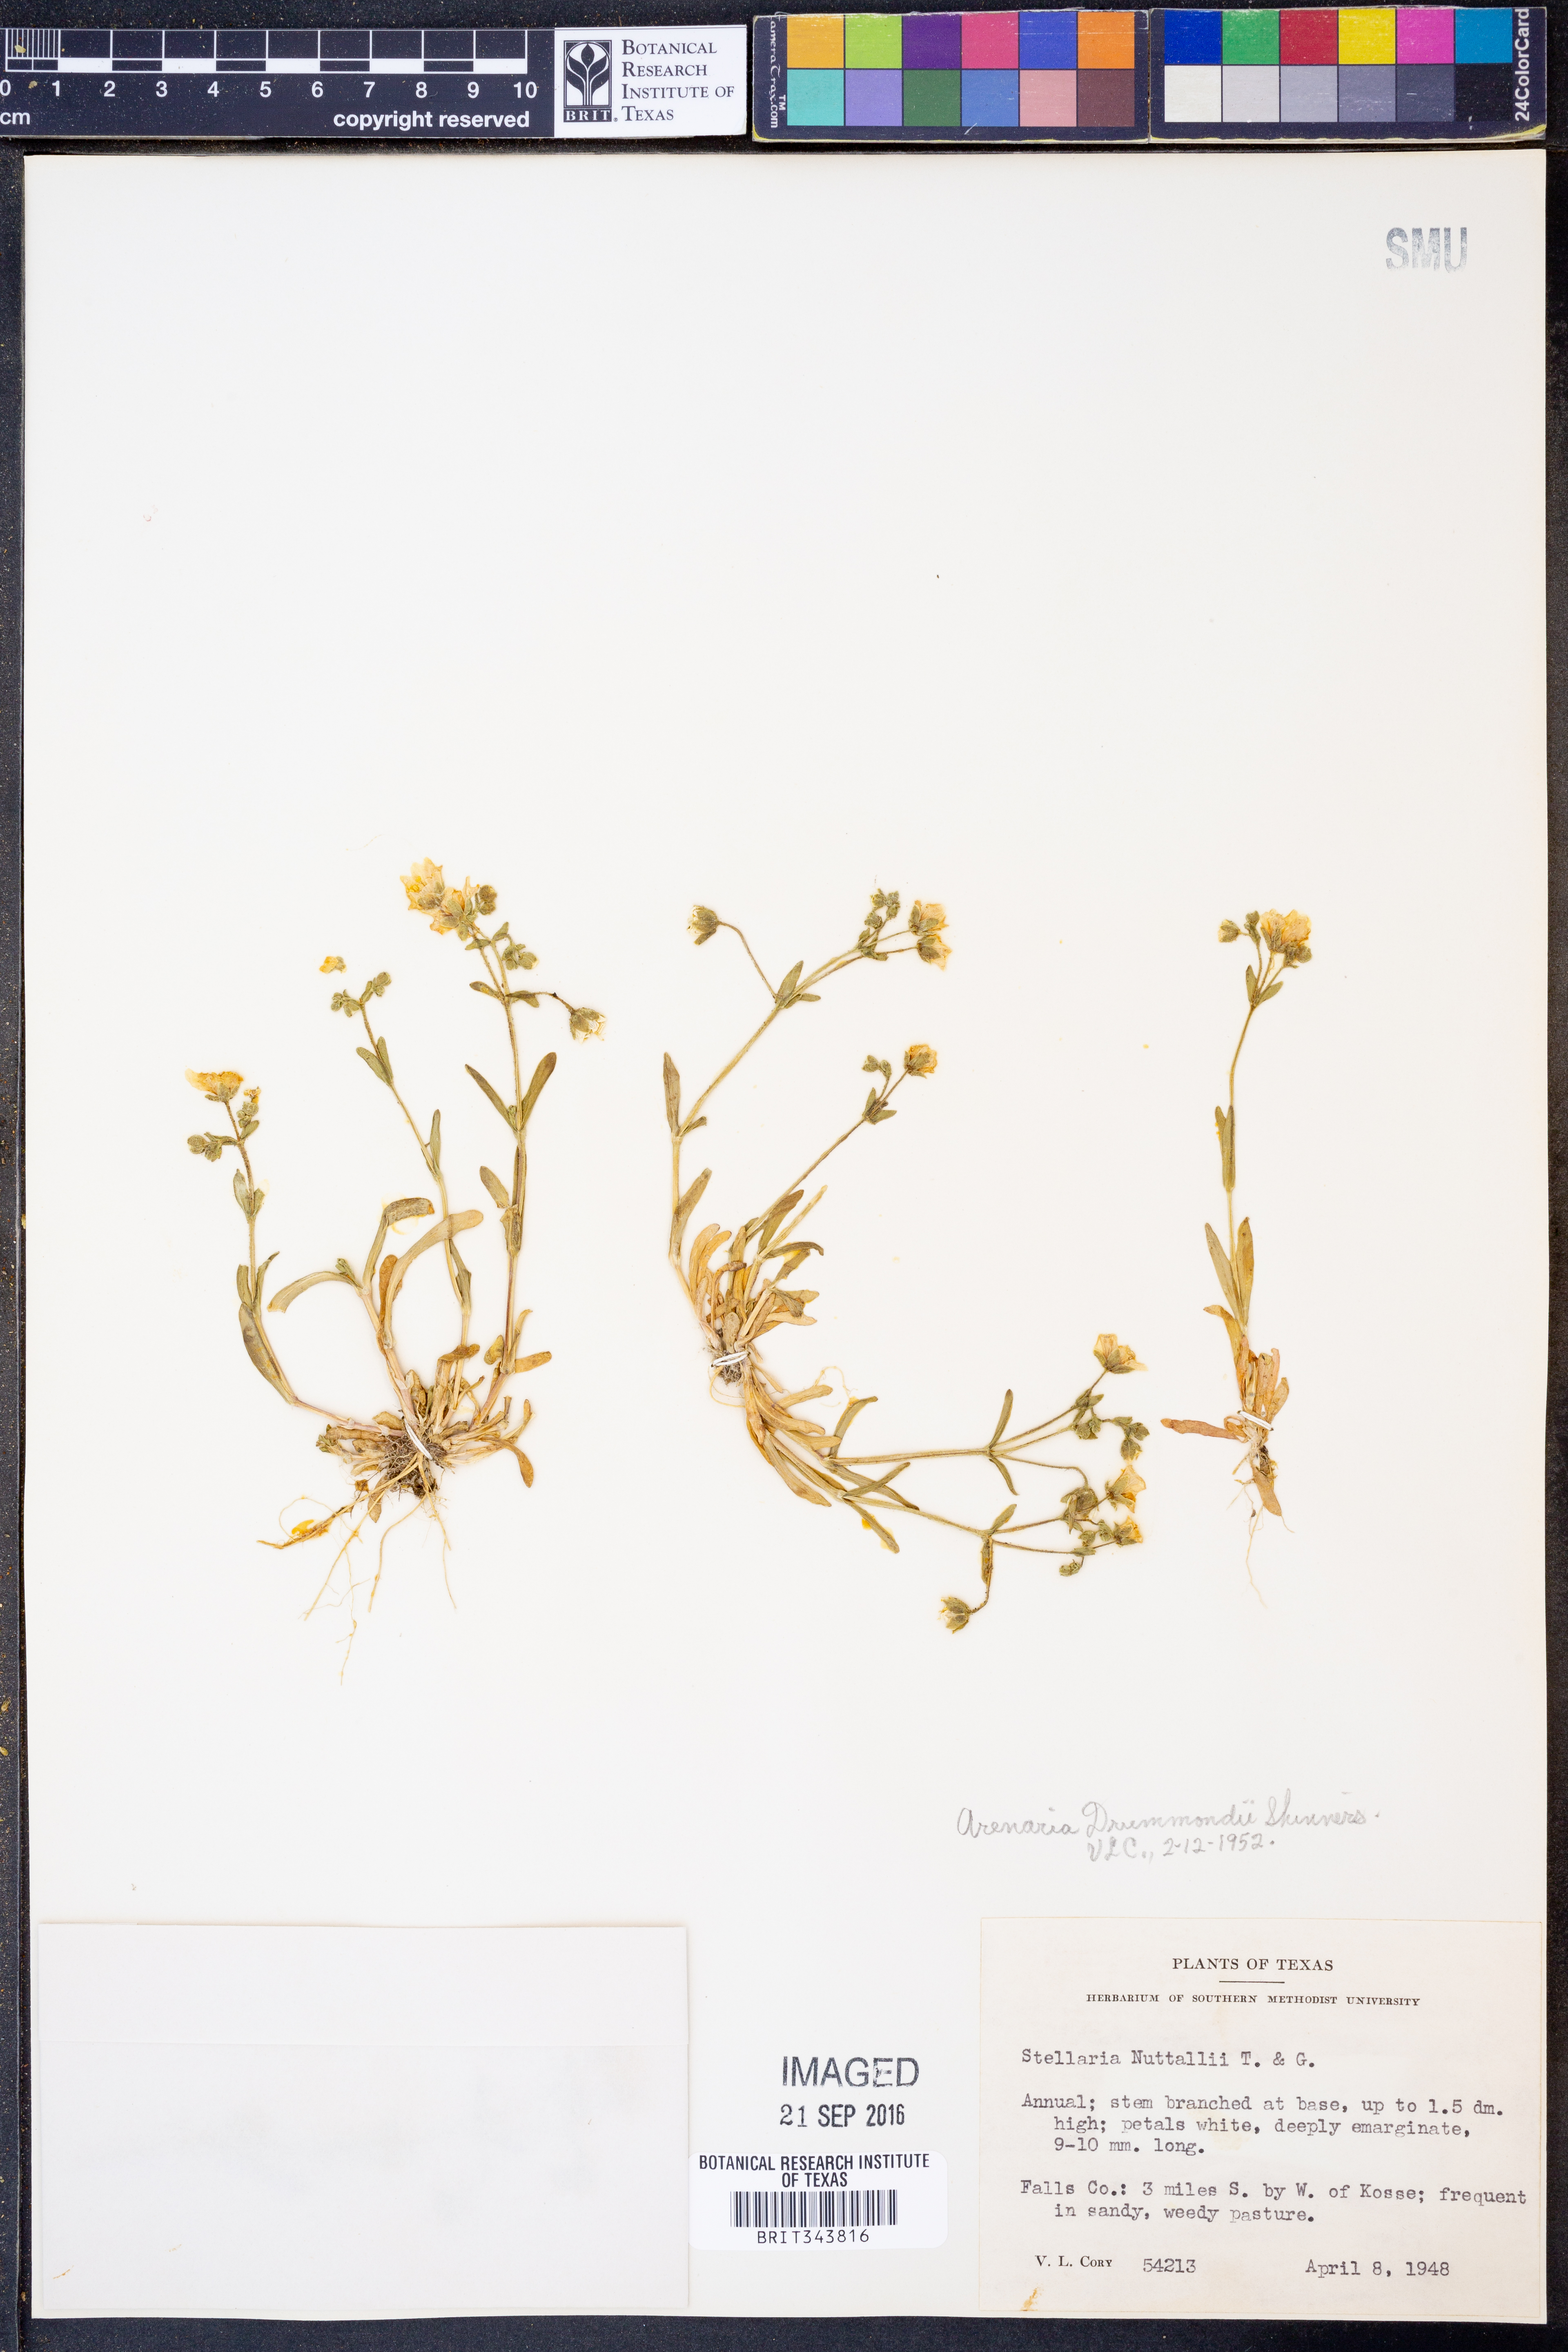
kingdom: Plantae
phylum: Tracheophyta
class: Magnoliopsida
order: Caryophyllales
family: Caryophyllaceae
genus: Geocarpon
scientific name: Geocarpon nuttallii
